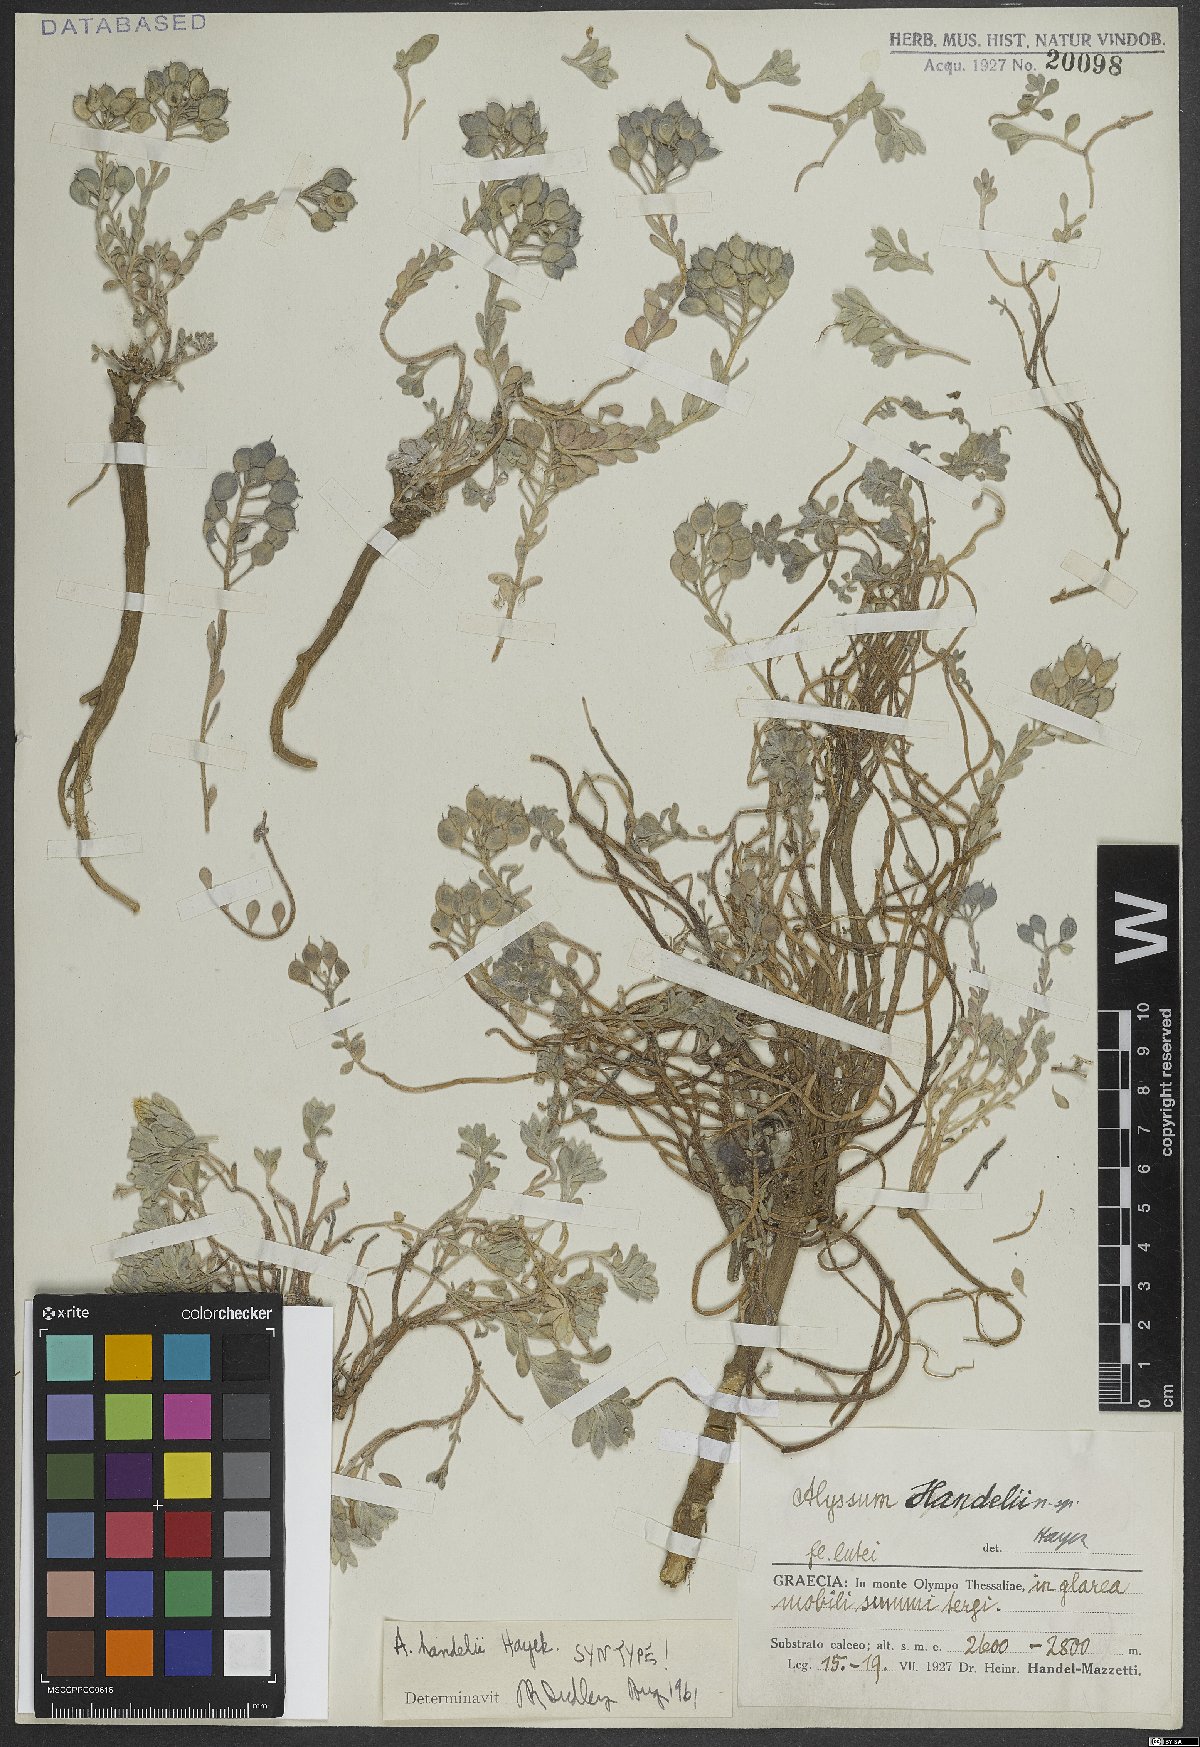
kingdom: Plantae
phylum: Tracheophyta
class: Magnoliopsida
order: Brassicales
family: Brassicaceae
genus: Alyssum
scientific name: Alyssum handelii
